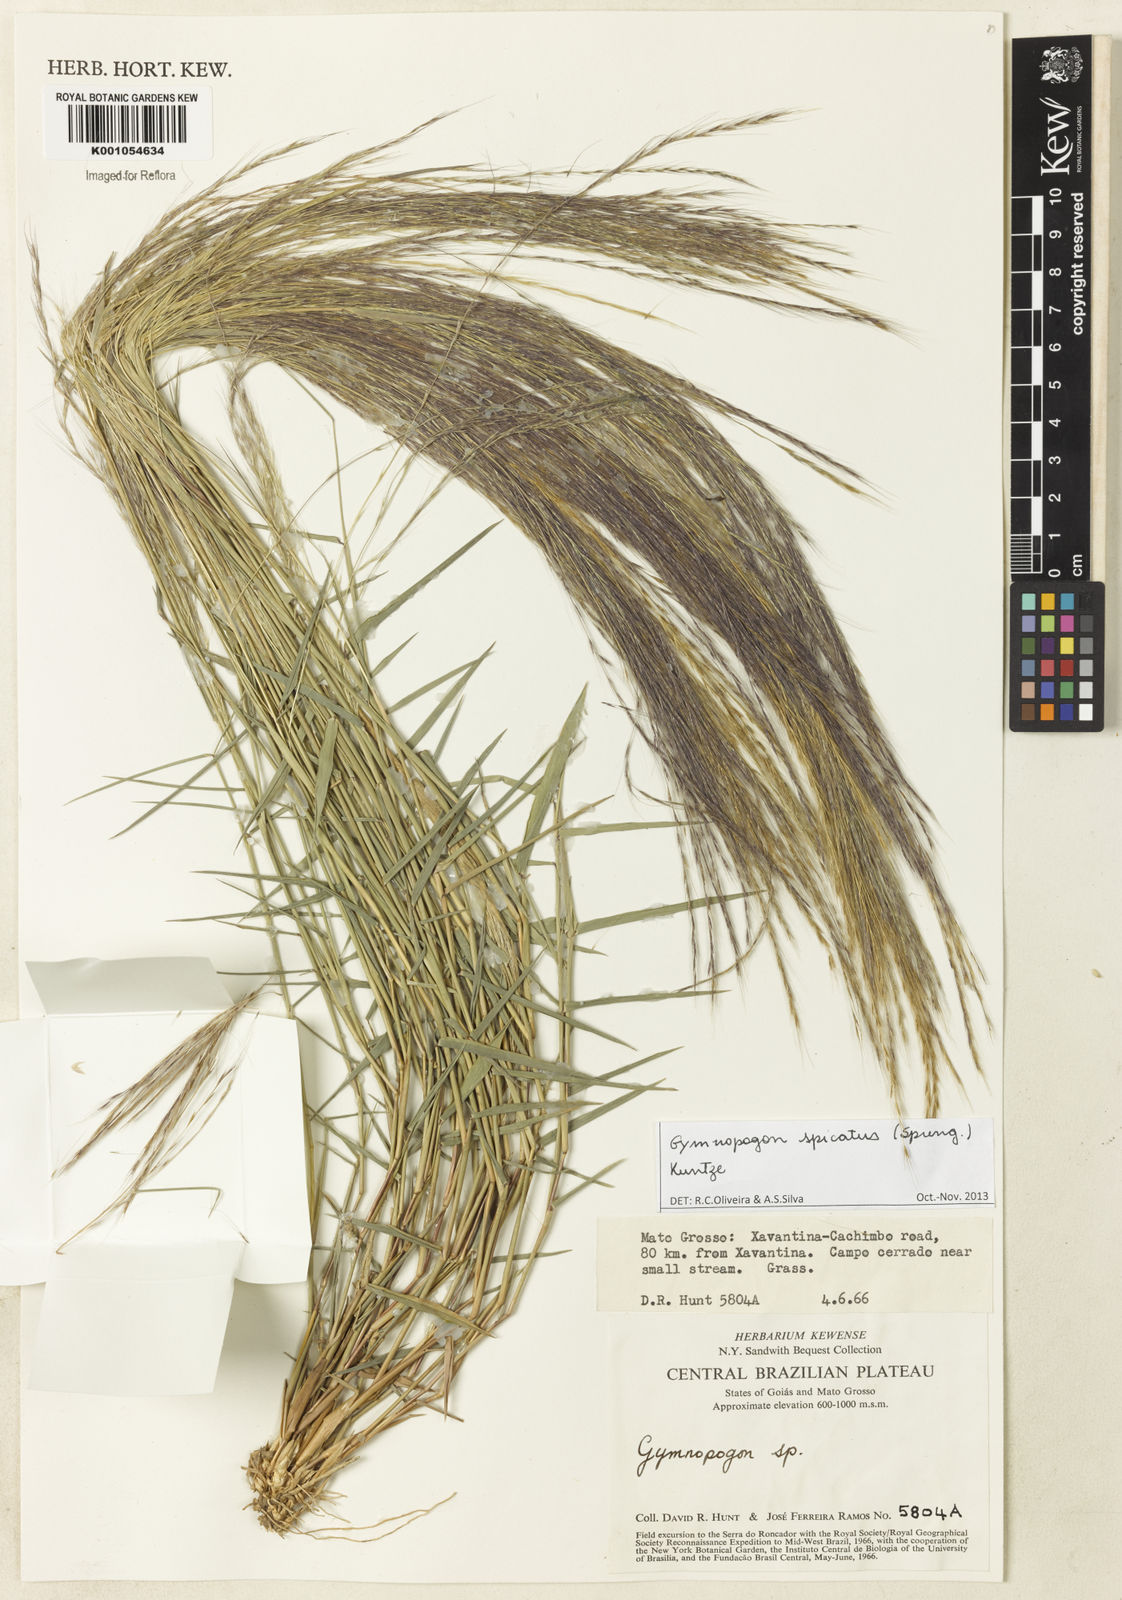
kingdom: Plantae
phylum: Tracheophyta
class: Liliopsida
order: Poales
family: Poaceae
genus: Gymnopogon
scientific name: Gymnopogon spicatus
